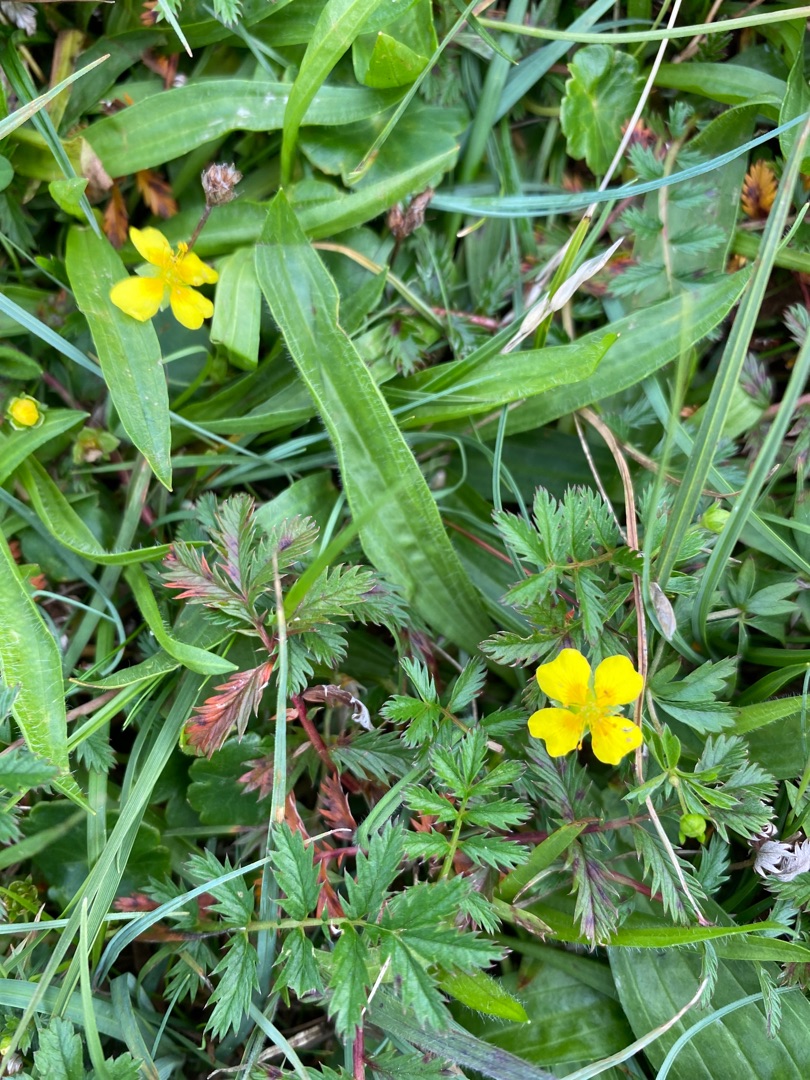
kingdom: Plantae
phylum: Tracheophyta
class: Magnoliopsida
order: Rosales
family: Rosaceae
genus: Potentilla
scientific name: Potentilla erecta
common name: Tormentil
